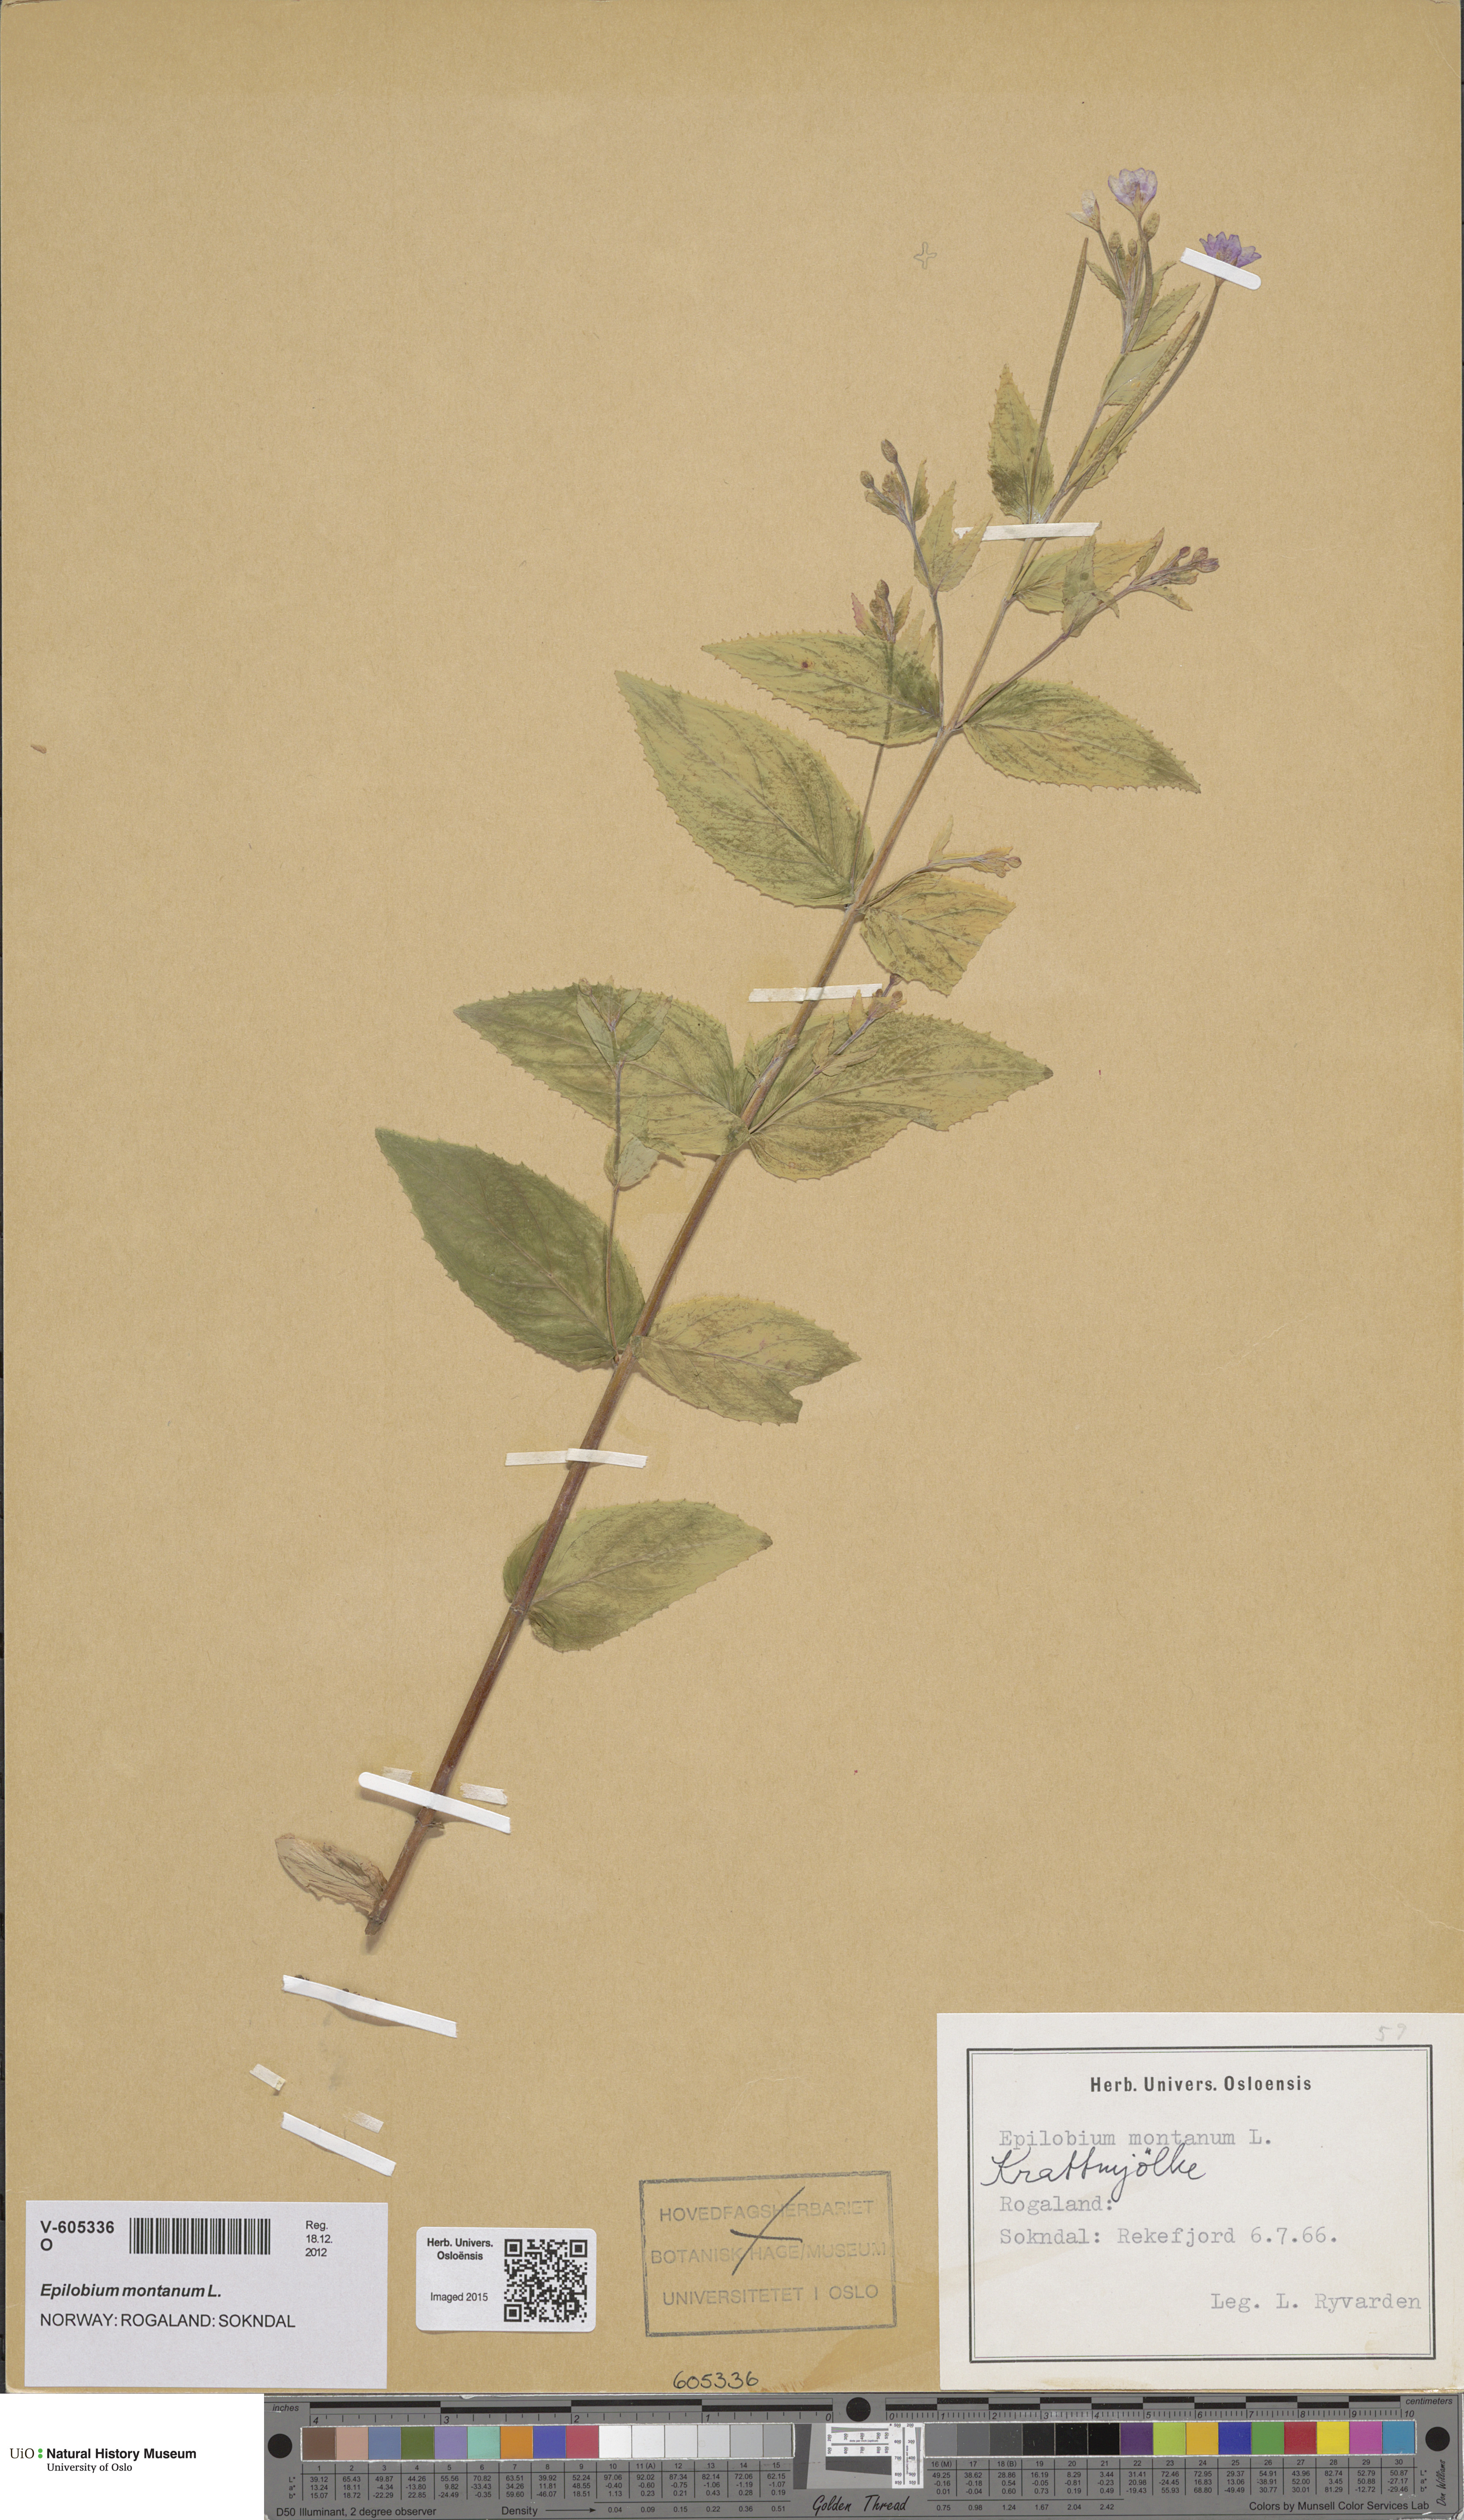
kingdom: Plantae
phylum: Tracheophyta
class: Magnoliopsida
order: Myrtales
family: Onagraceae
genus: Epilobium
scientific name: Epilobium montanum
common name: Broad-leaved willowherb
